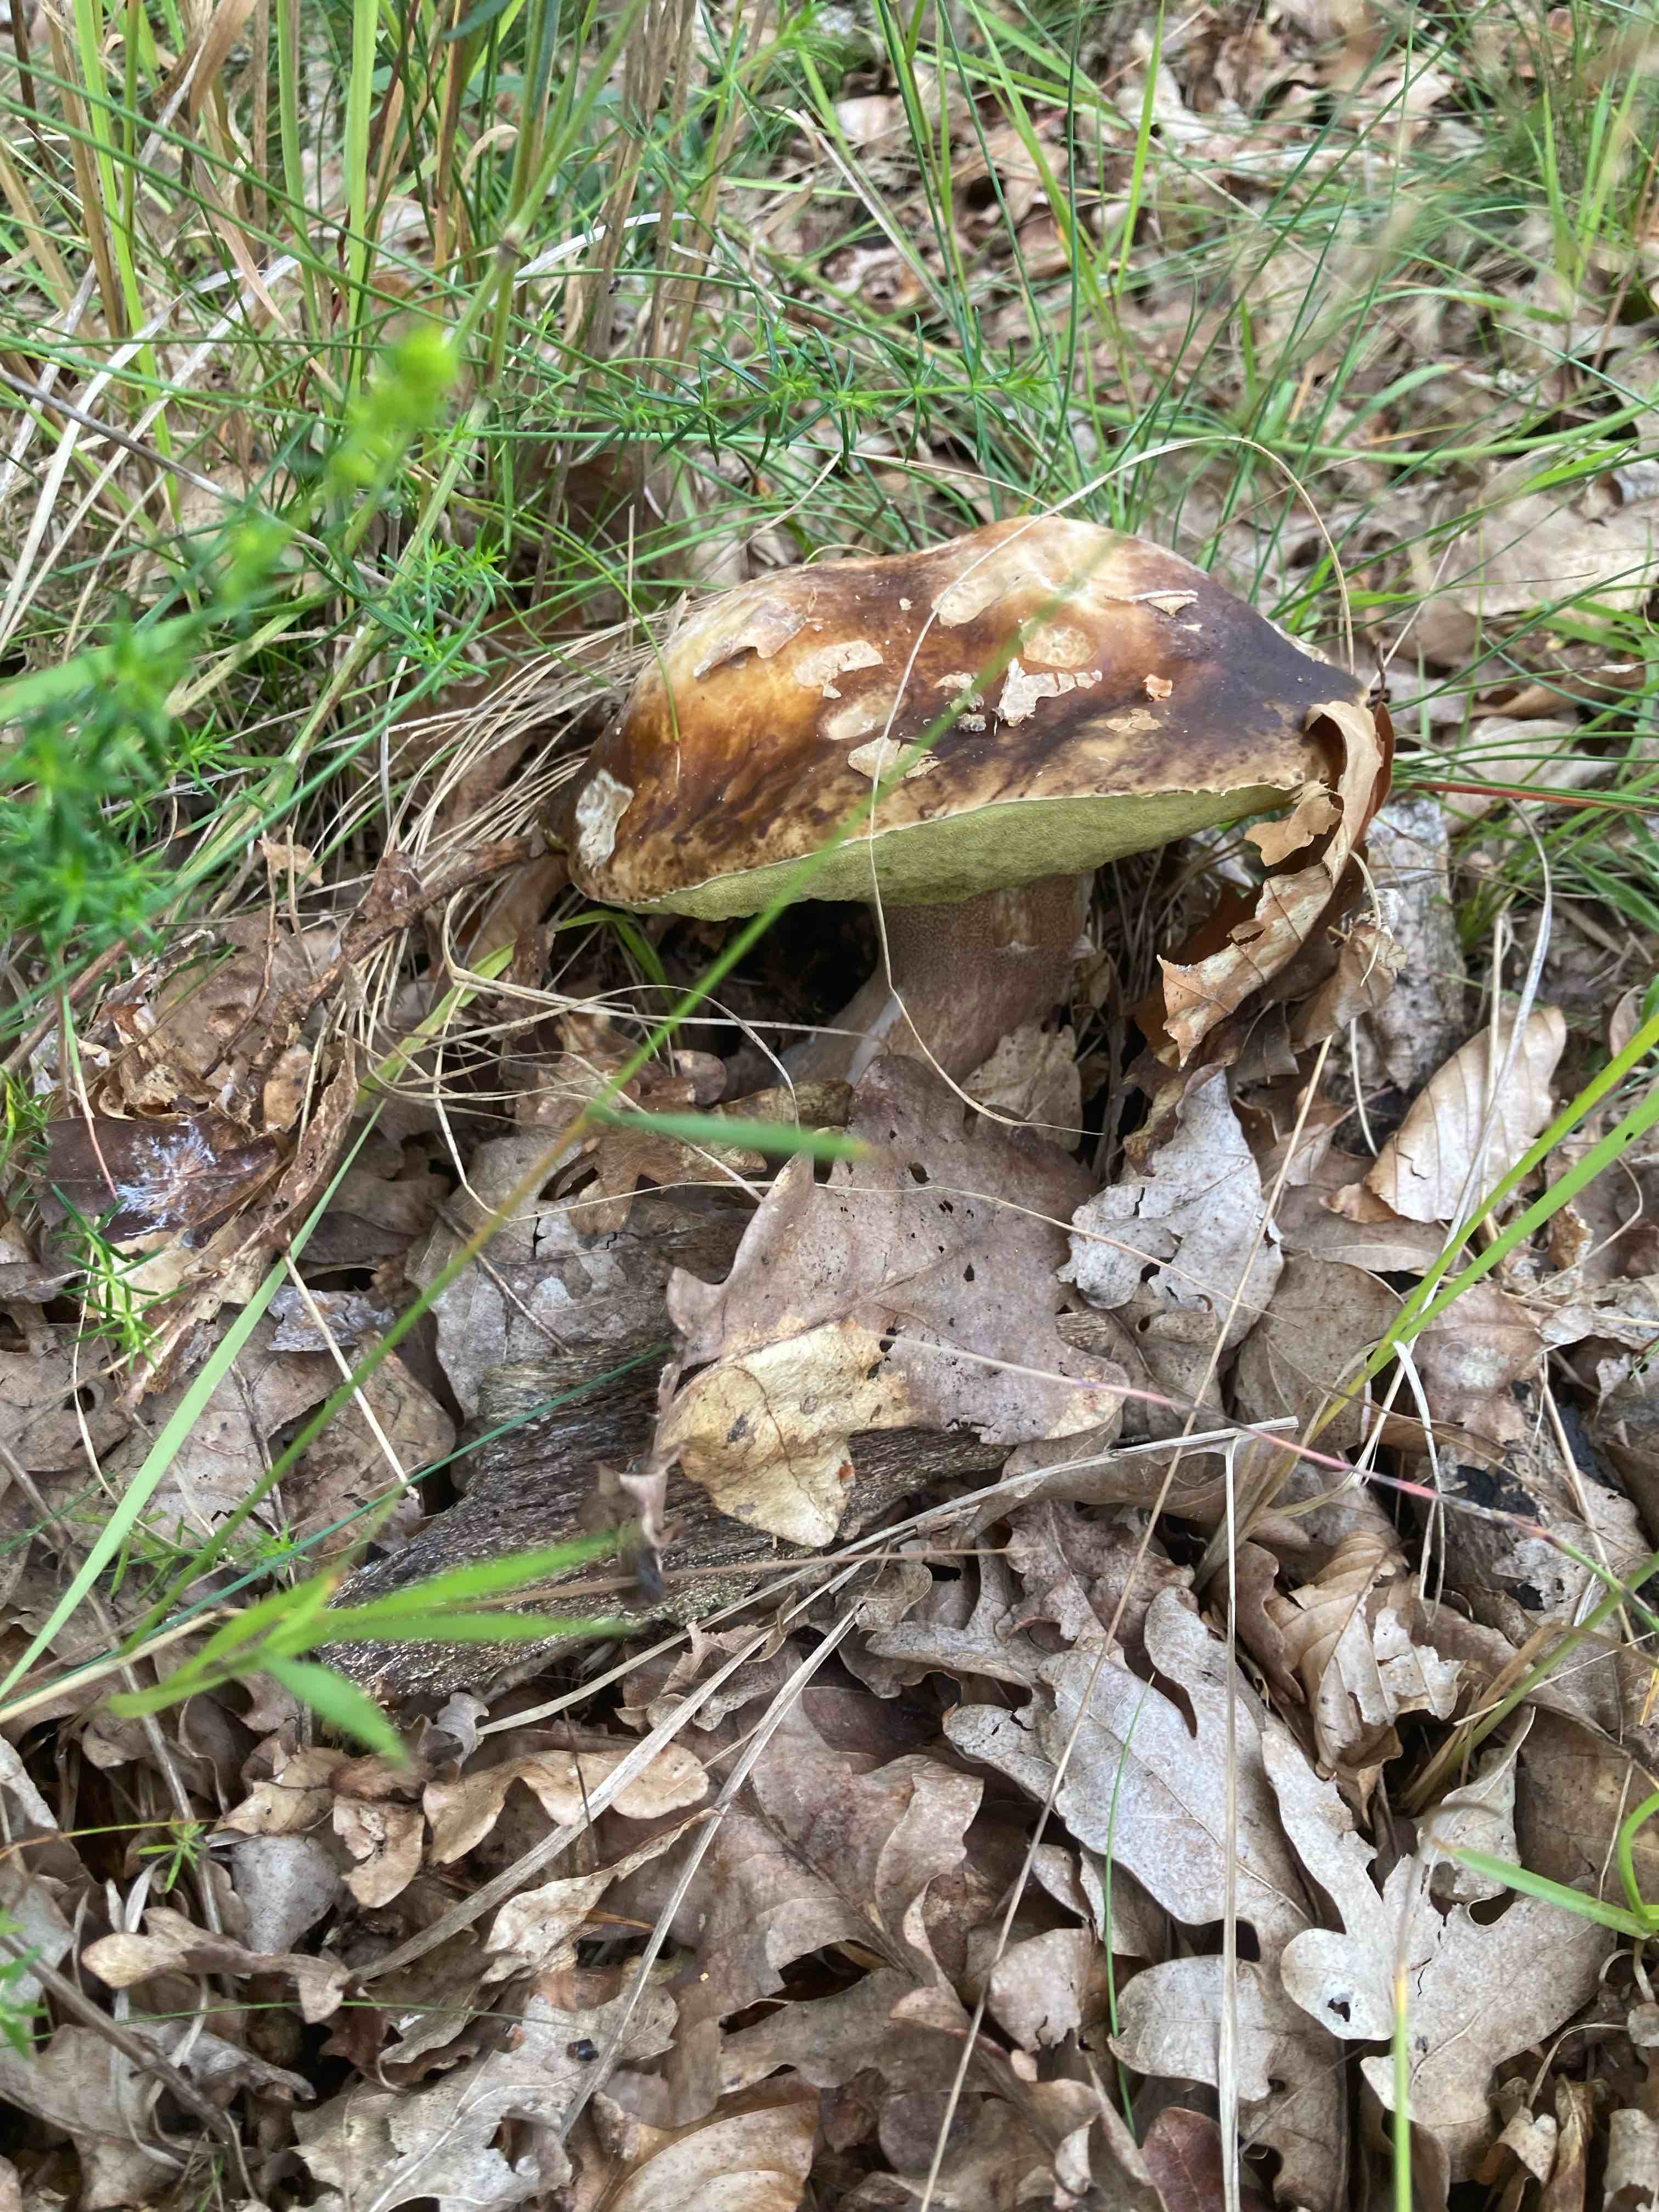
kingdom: Fungi
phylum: Basidiomycota
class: Agaricomycetes
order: Boletales
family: Boletaceae
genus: Boletus
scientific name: Boletus edulis
